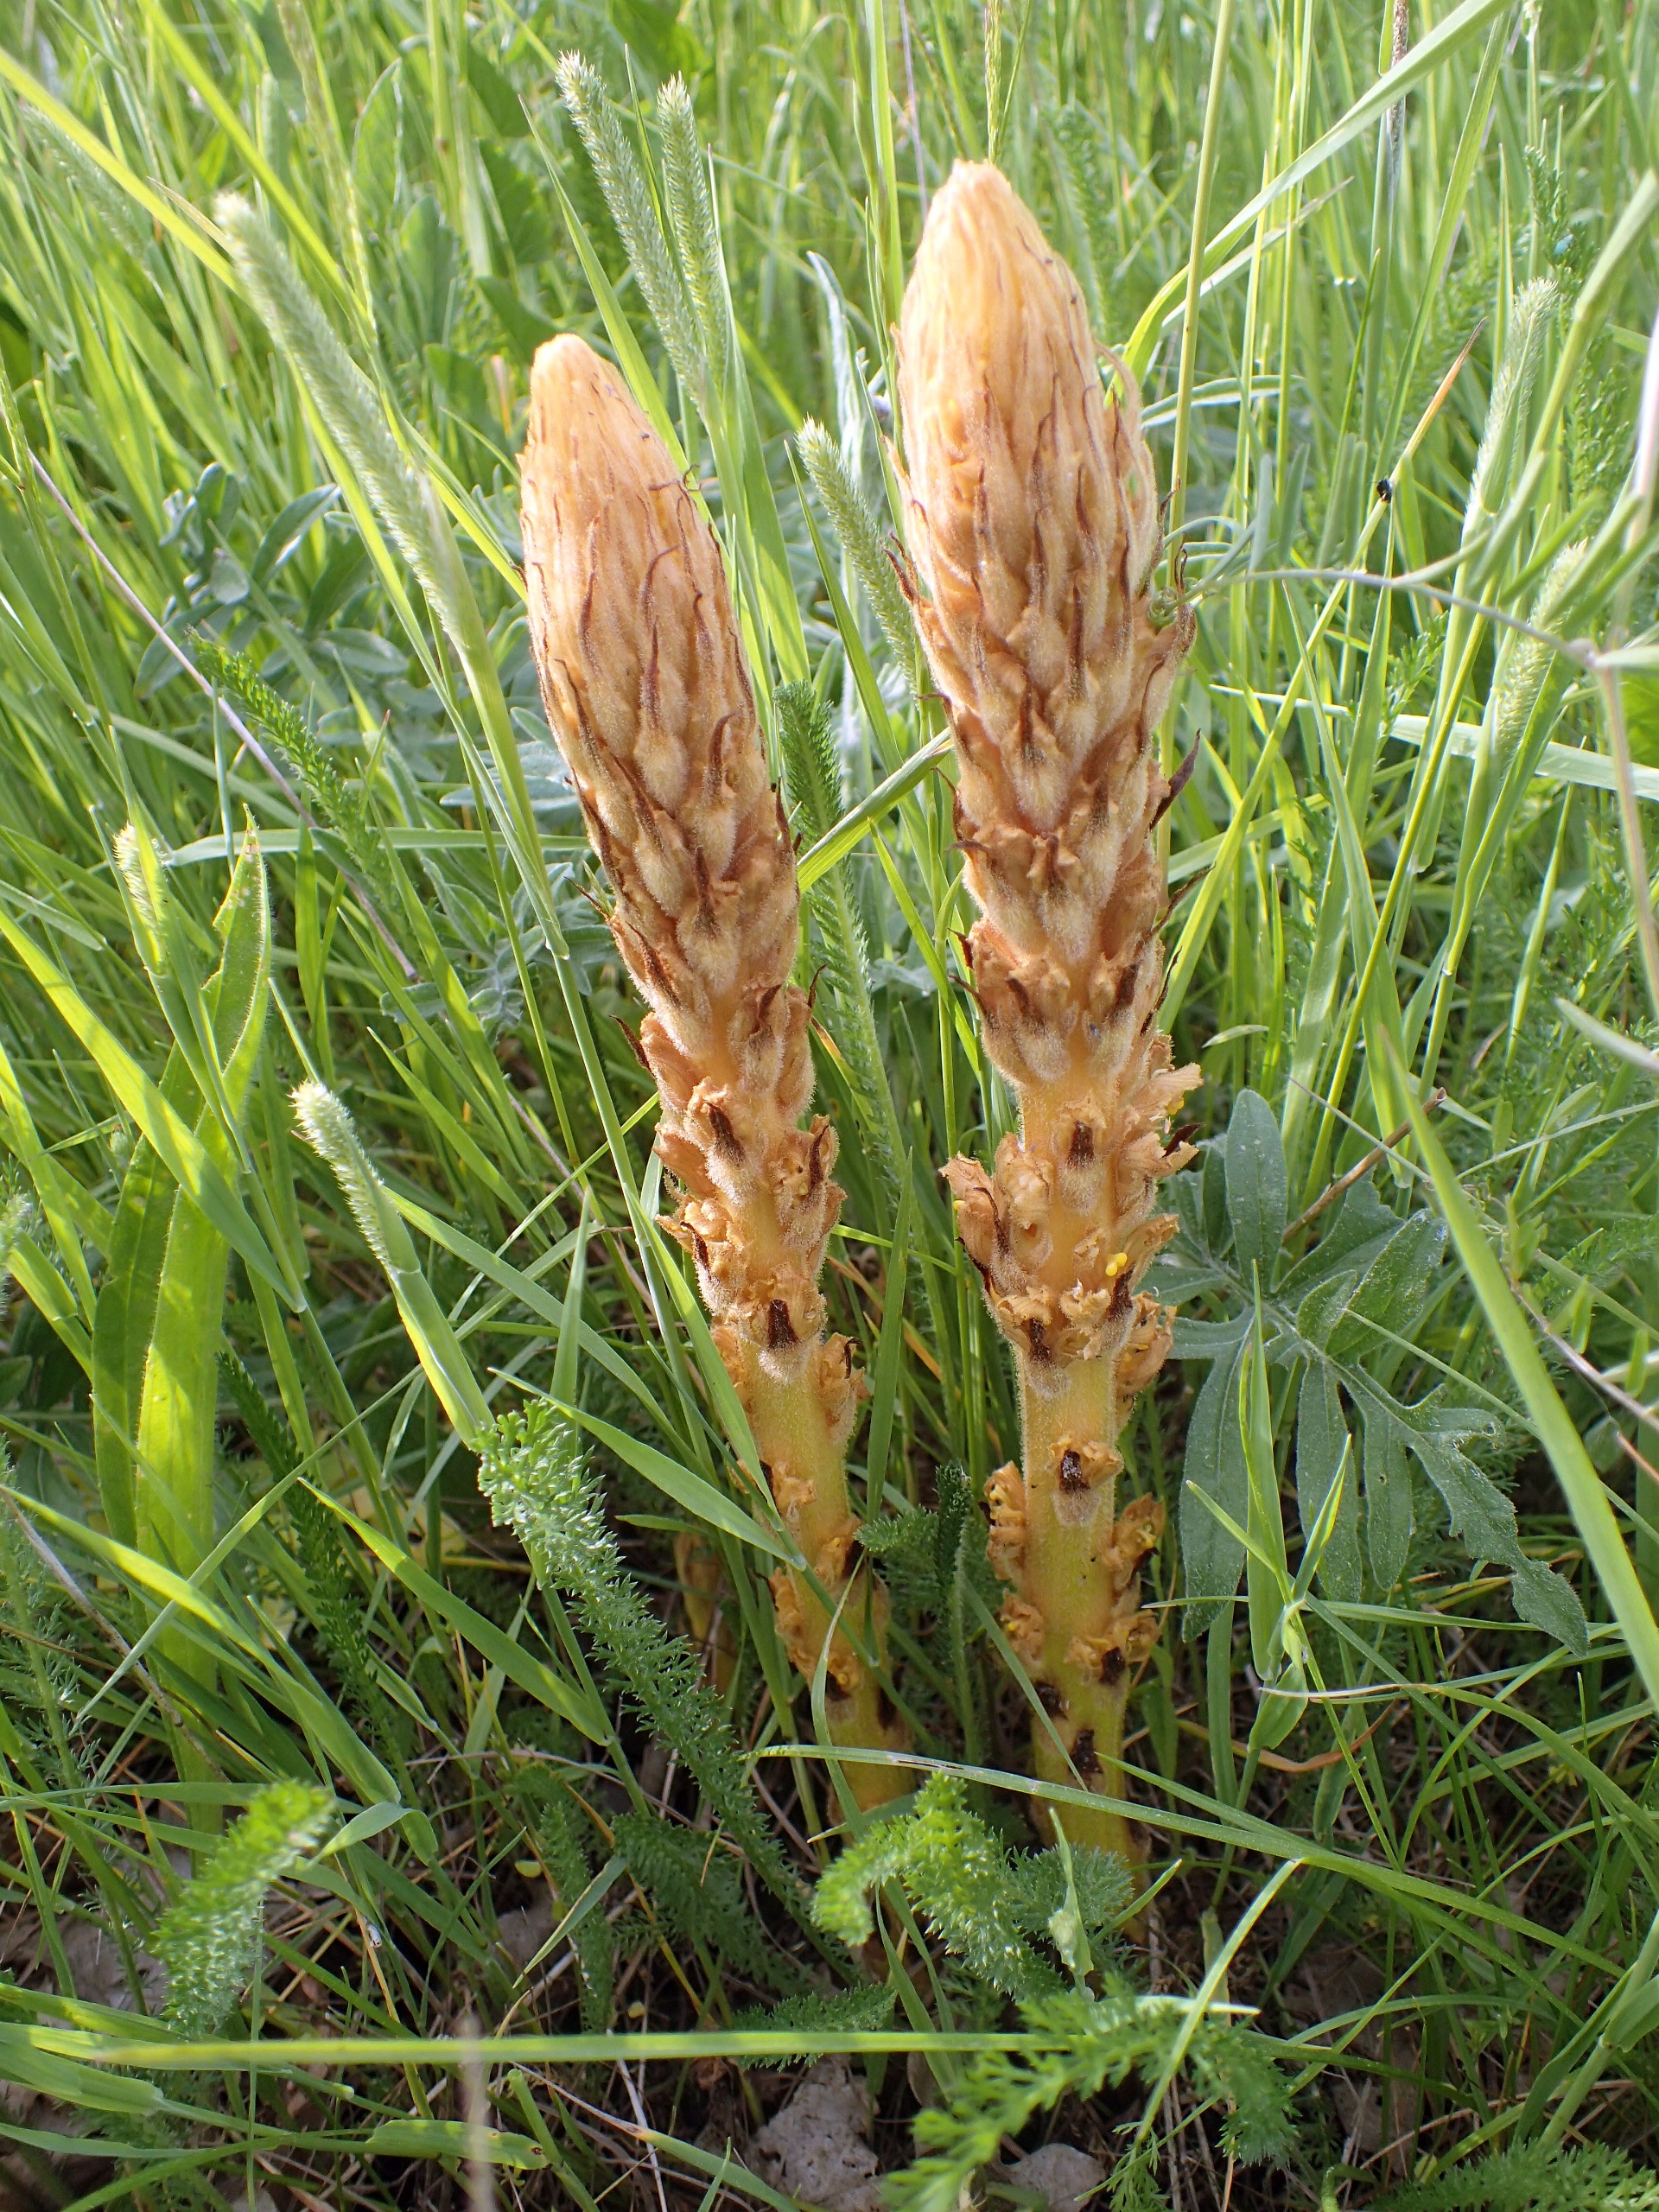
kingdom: Plantae
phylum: Tracheophyta
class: Magnoliopsida
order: Lamiales
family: Orobanchaceae
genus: Orobanche
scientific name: Orobanche elatior
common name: Stor gyvelkvæler
